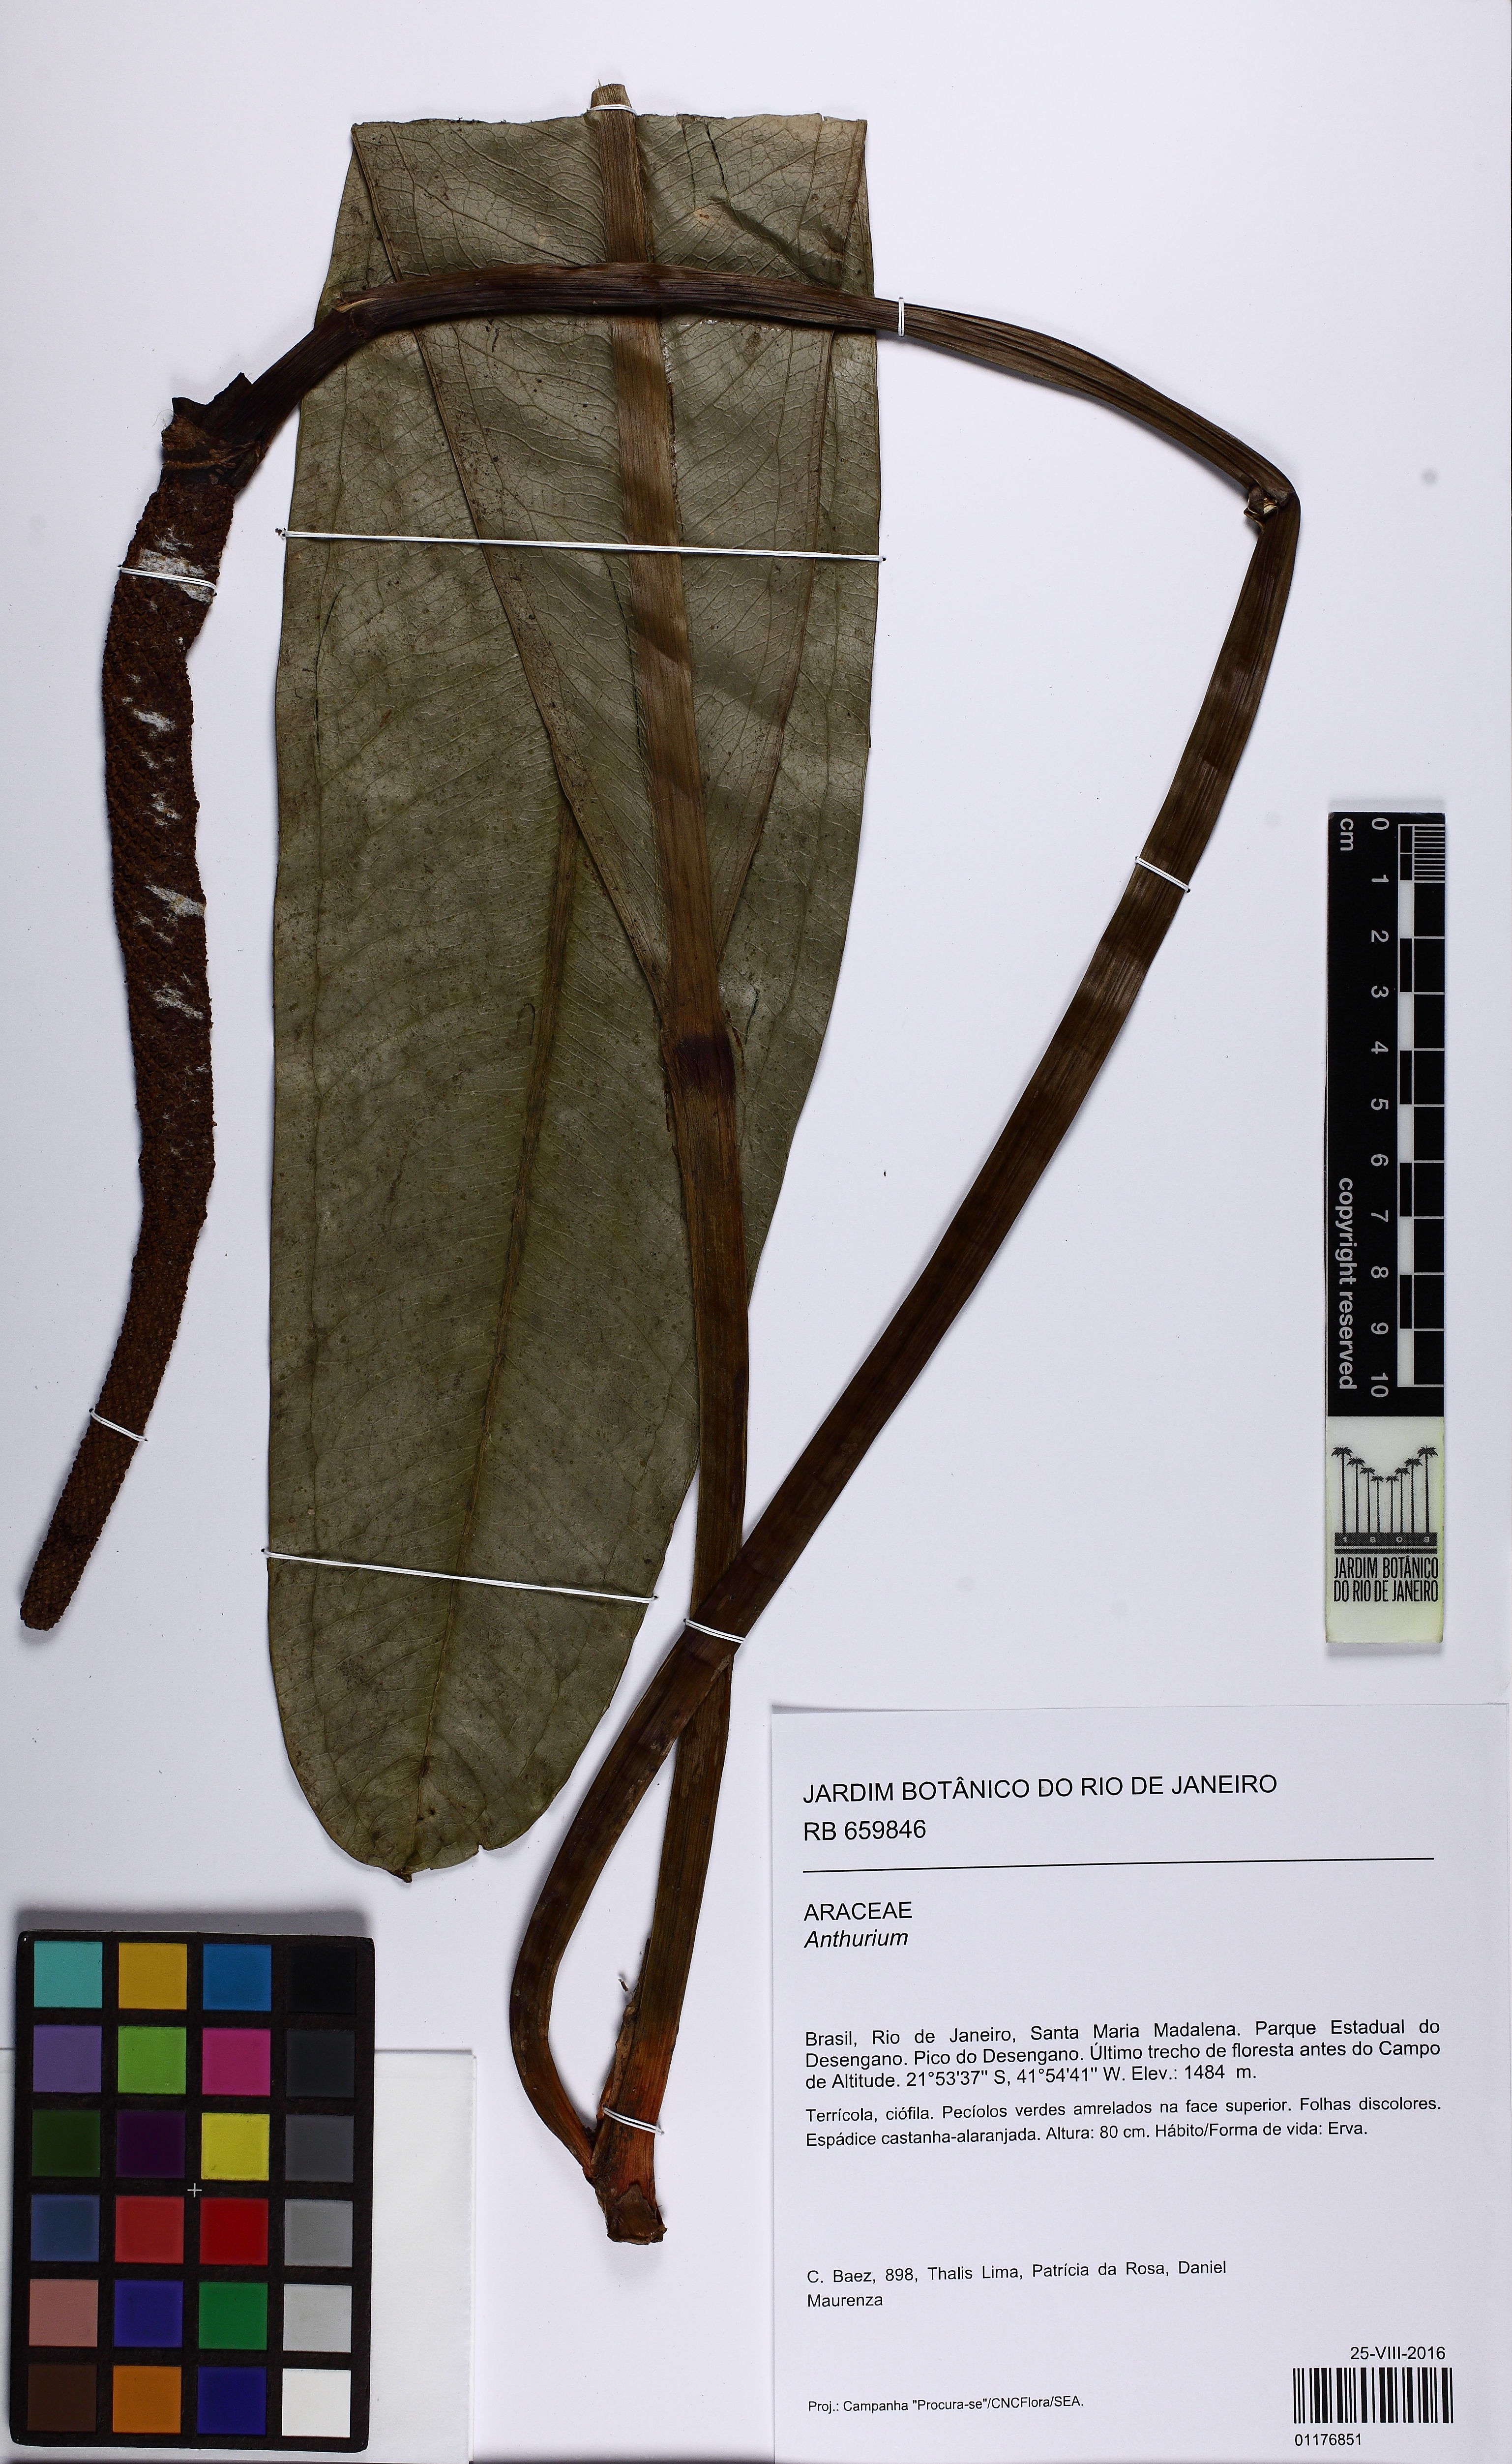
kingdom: Plantae
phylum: Tracheophyta
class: Liliopsida
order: Alismatales
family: Araceae
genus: Anthurium
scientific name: Anthurium
